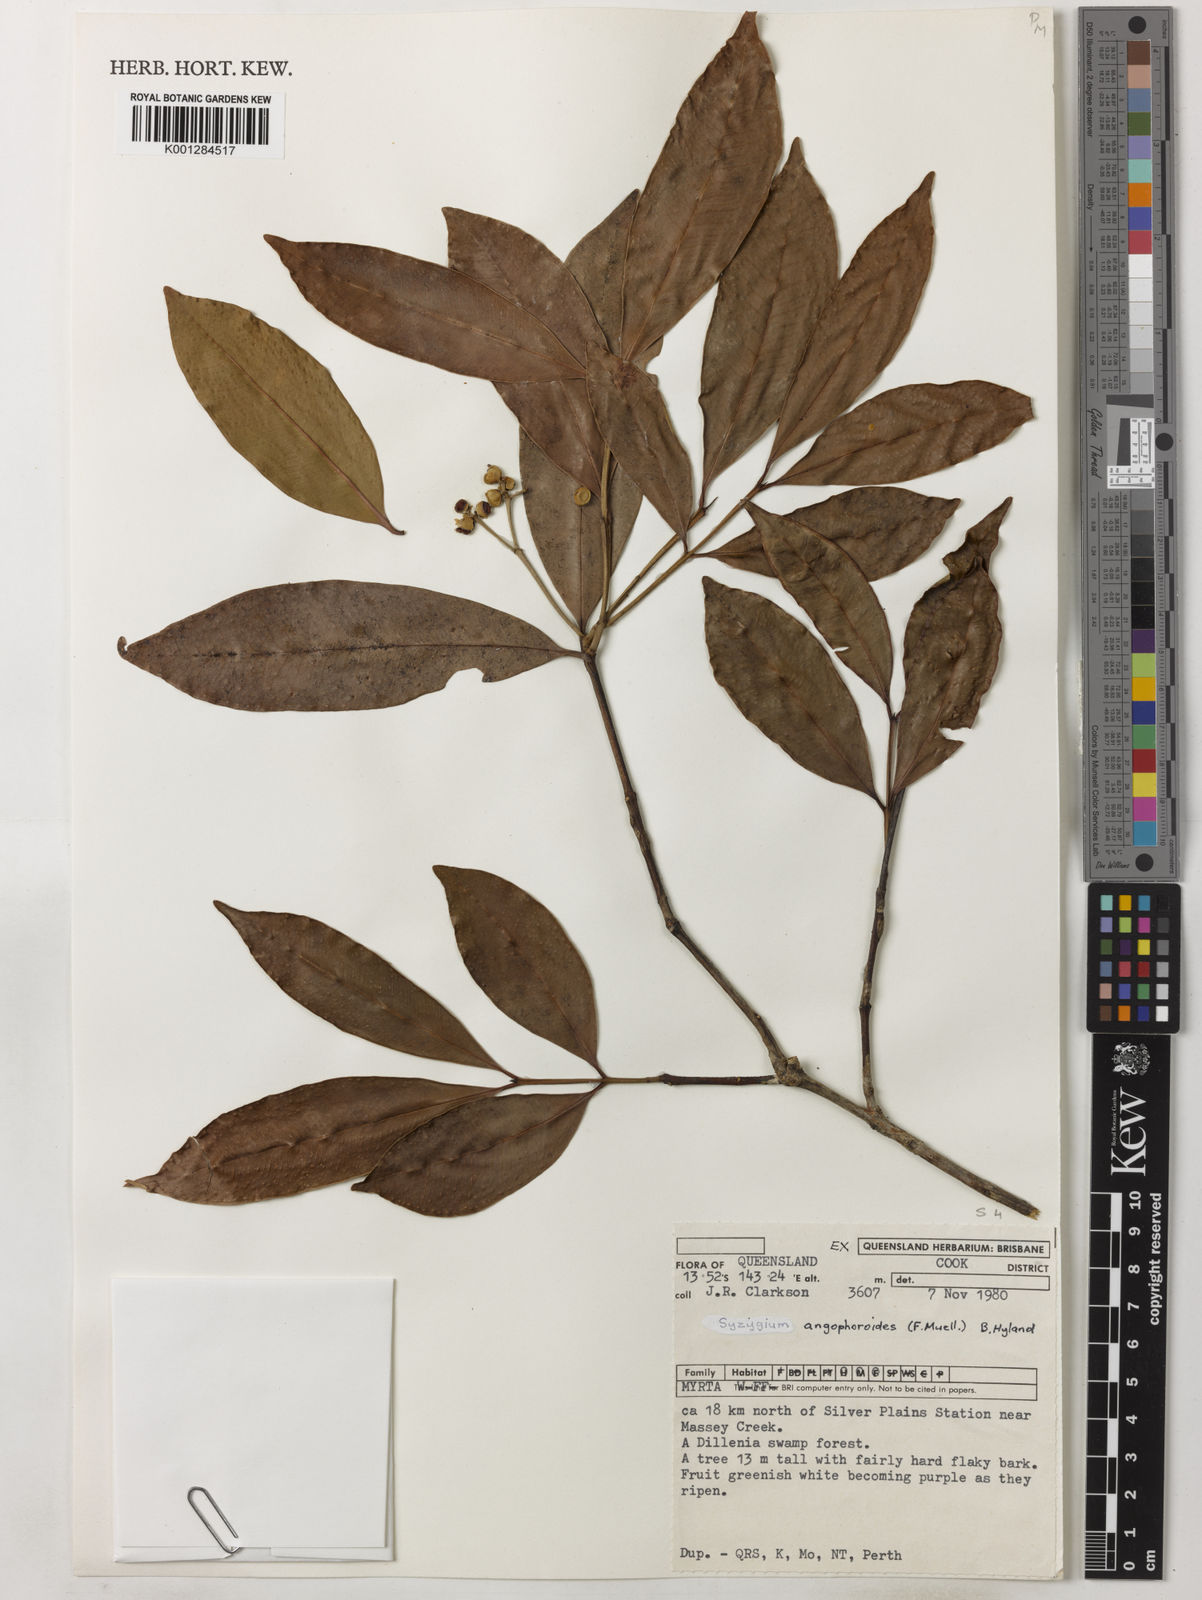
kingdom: Plantae
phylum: Tracheophyta
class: Magnoliopsida
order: Myrtales
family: Myrtaceae
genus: Syzygium
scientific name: Syzygium angophoroides
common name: Swamp satinash
